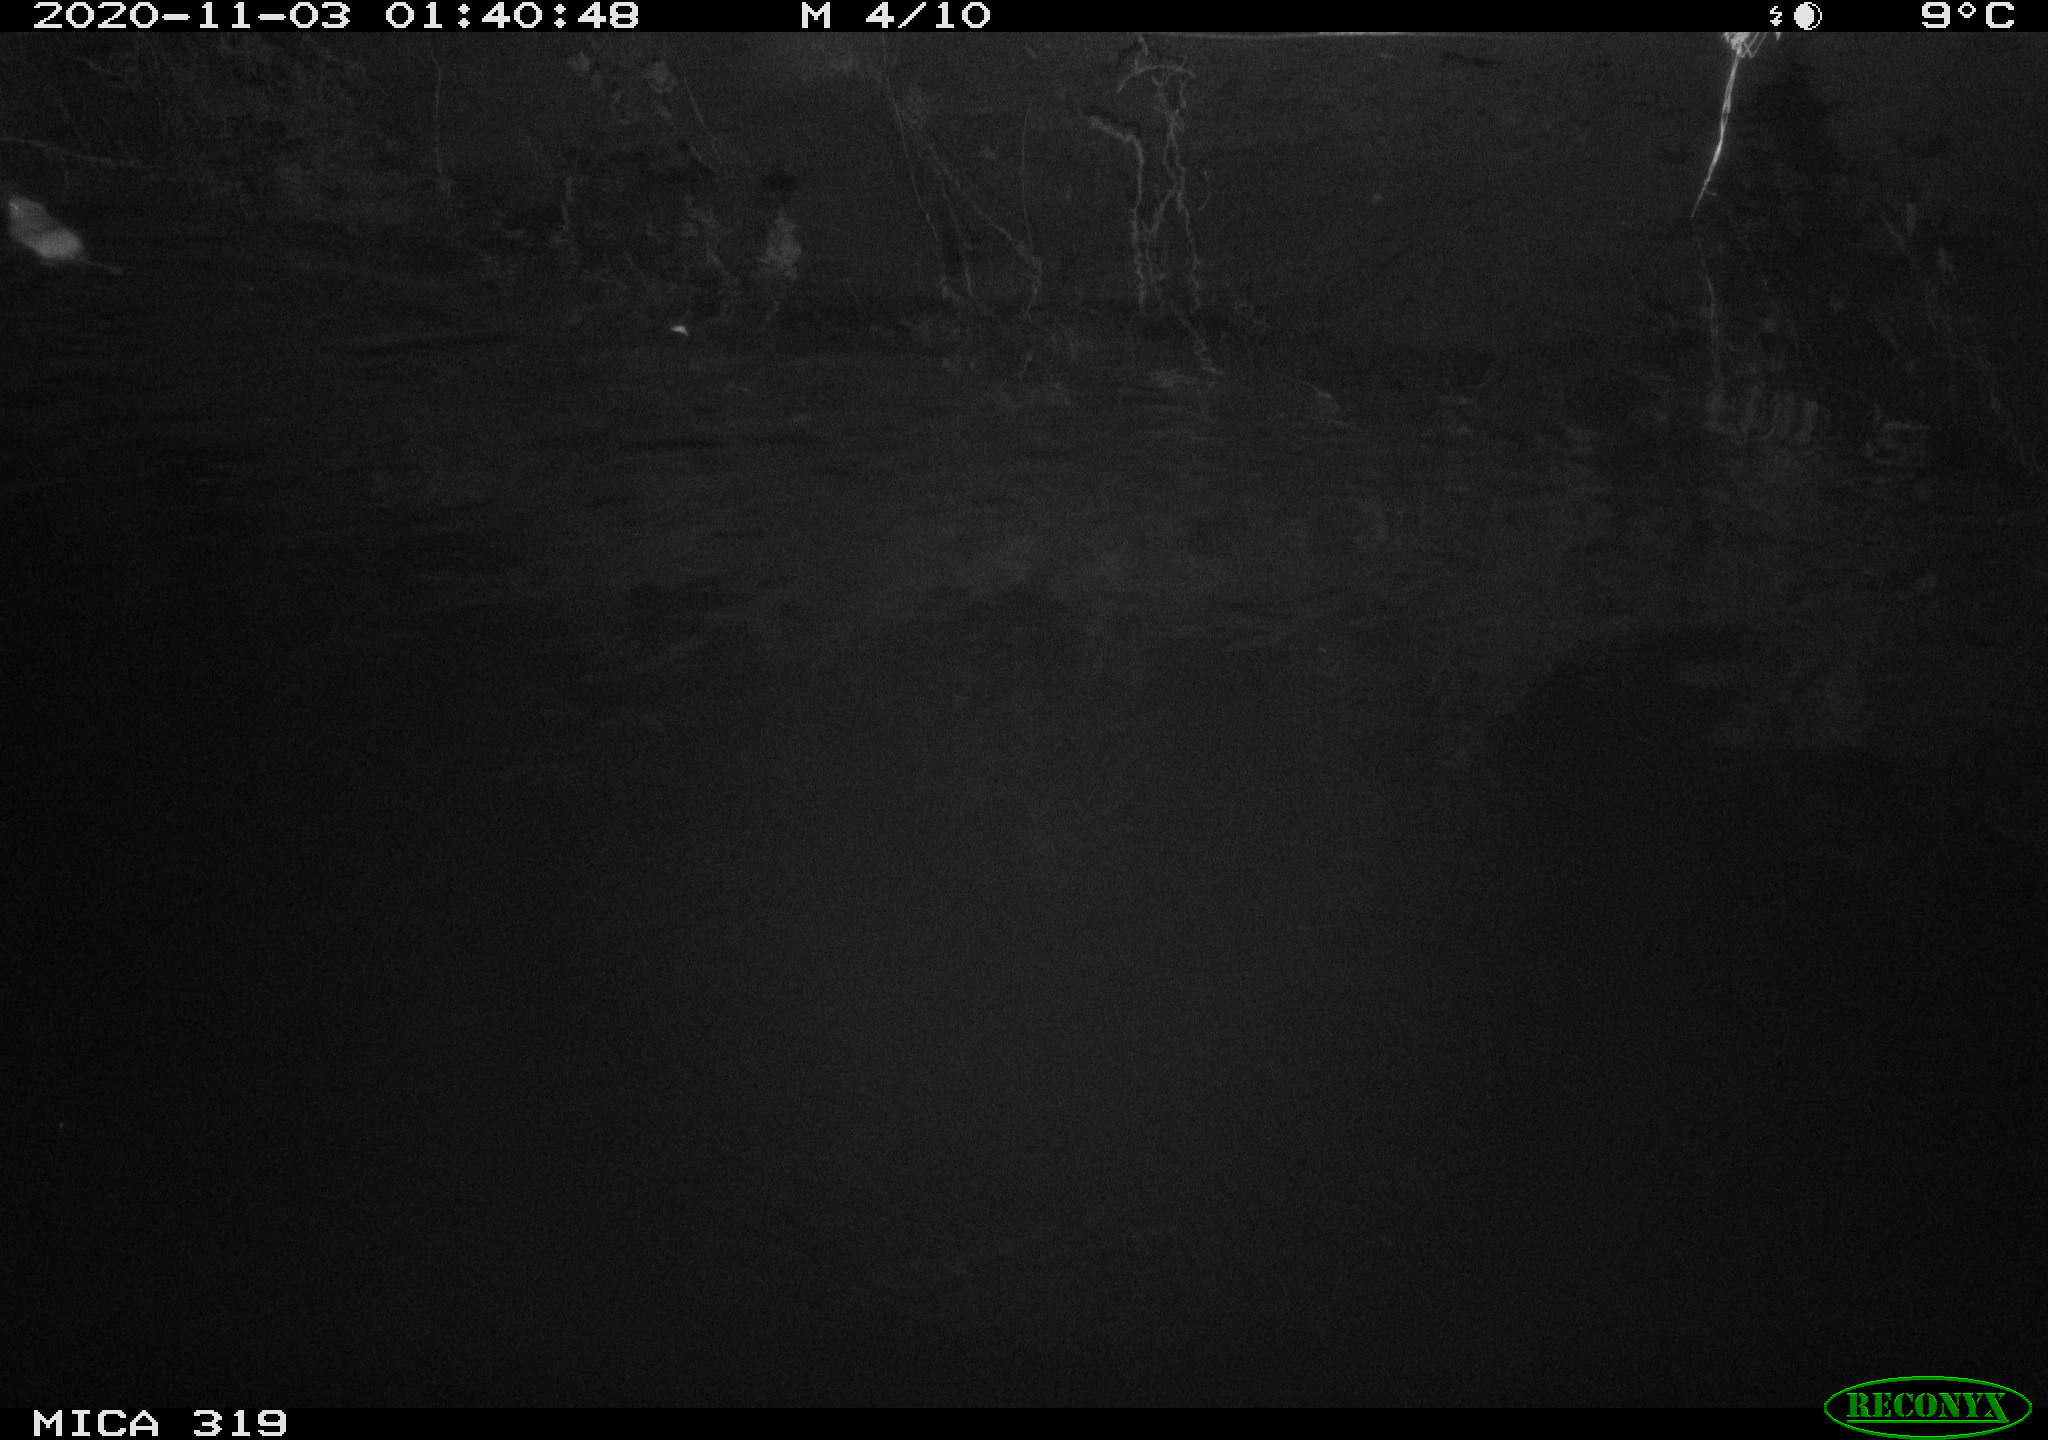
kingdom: Animalia
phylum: Chordata
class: Mammalia
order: Rodentia
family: Muridae
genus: Rattus
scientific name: Rattus norvegicus
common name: Brown rat
